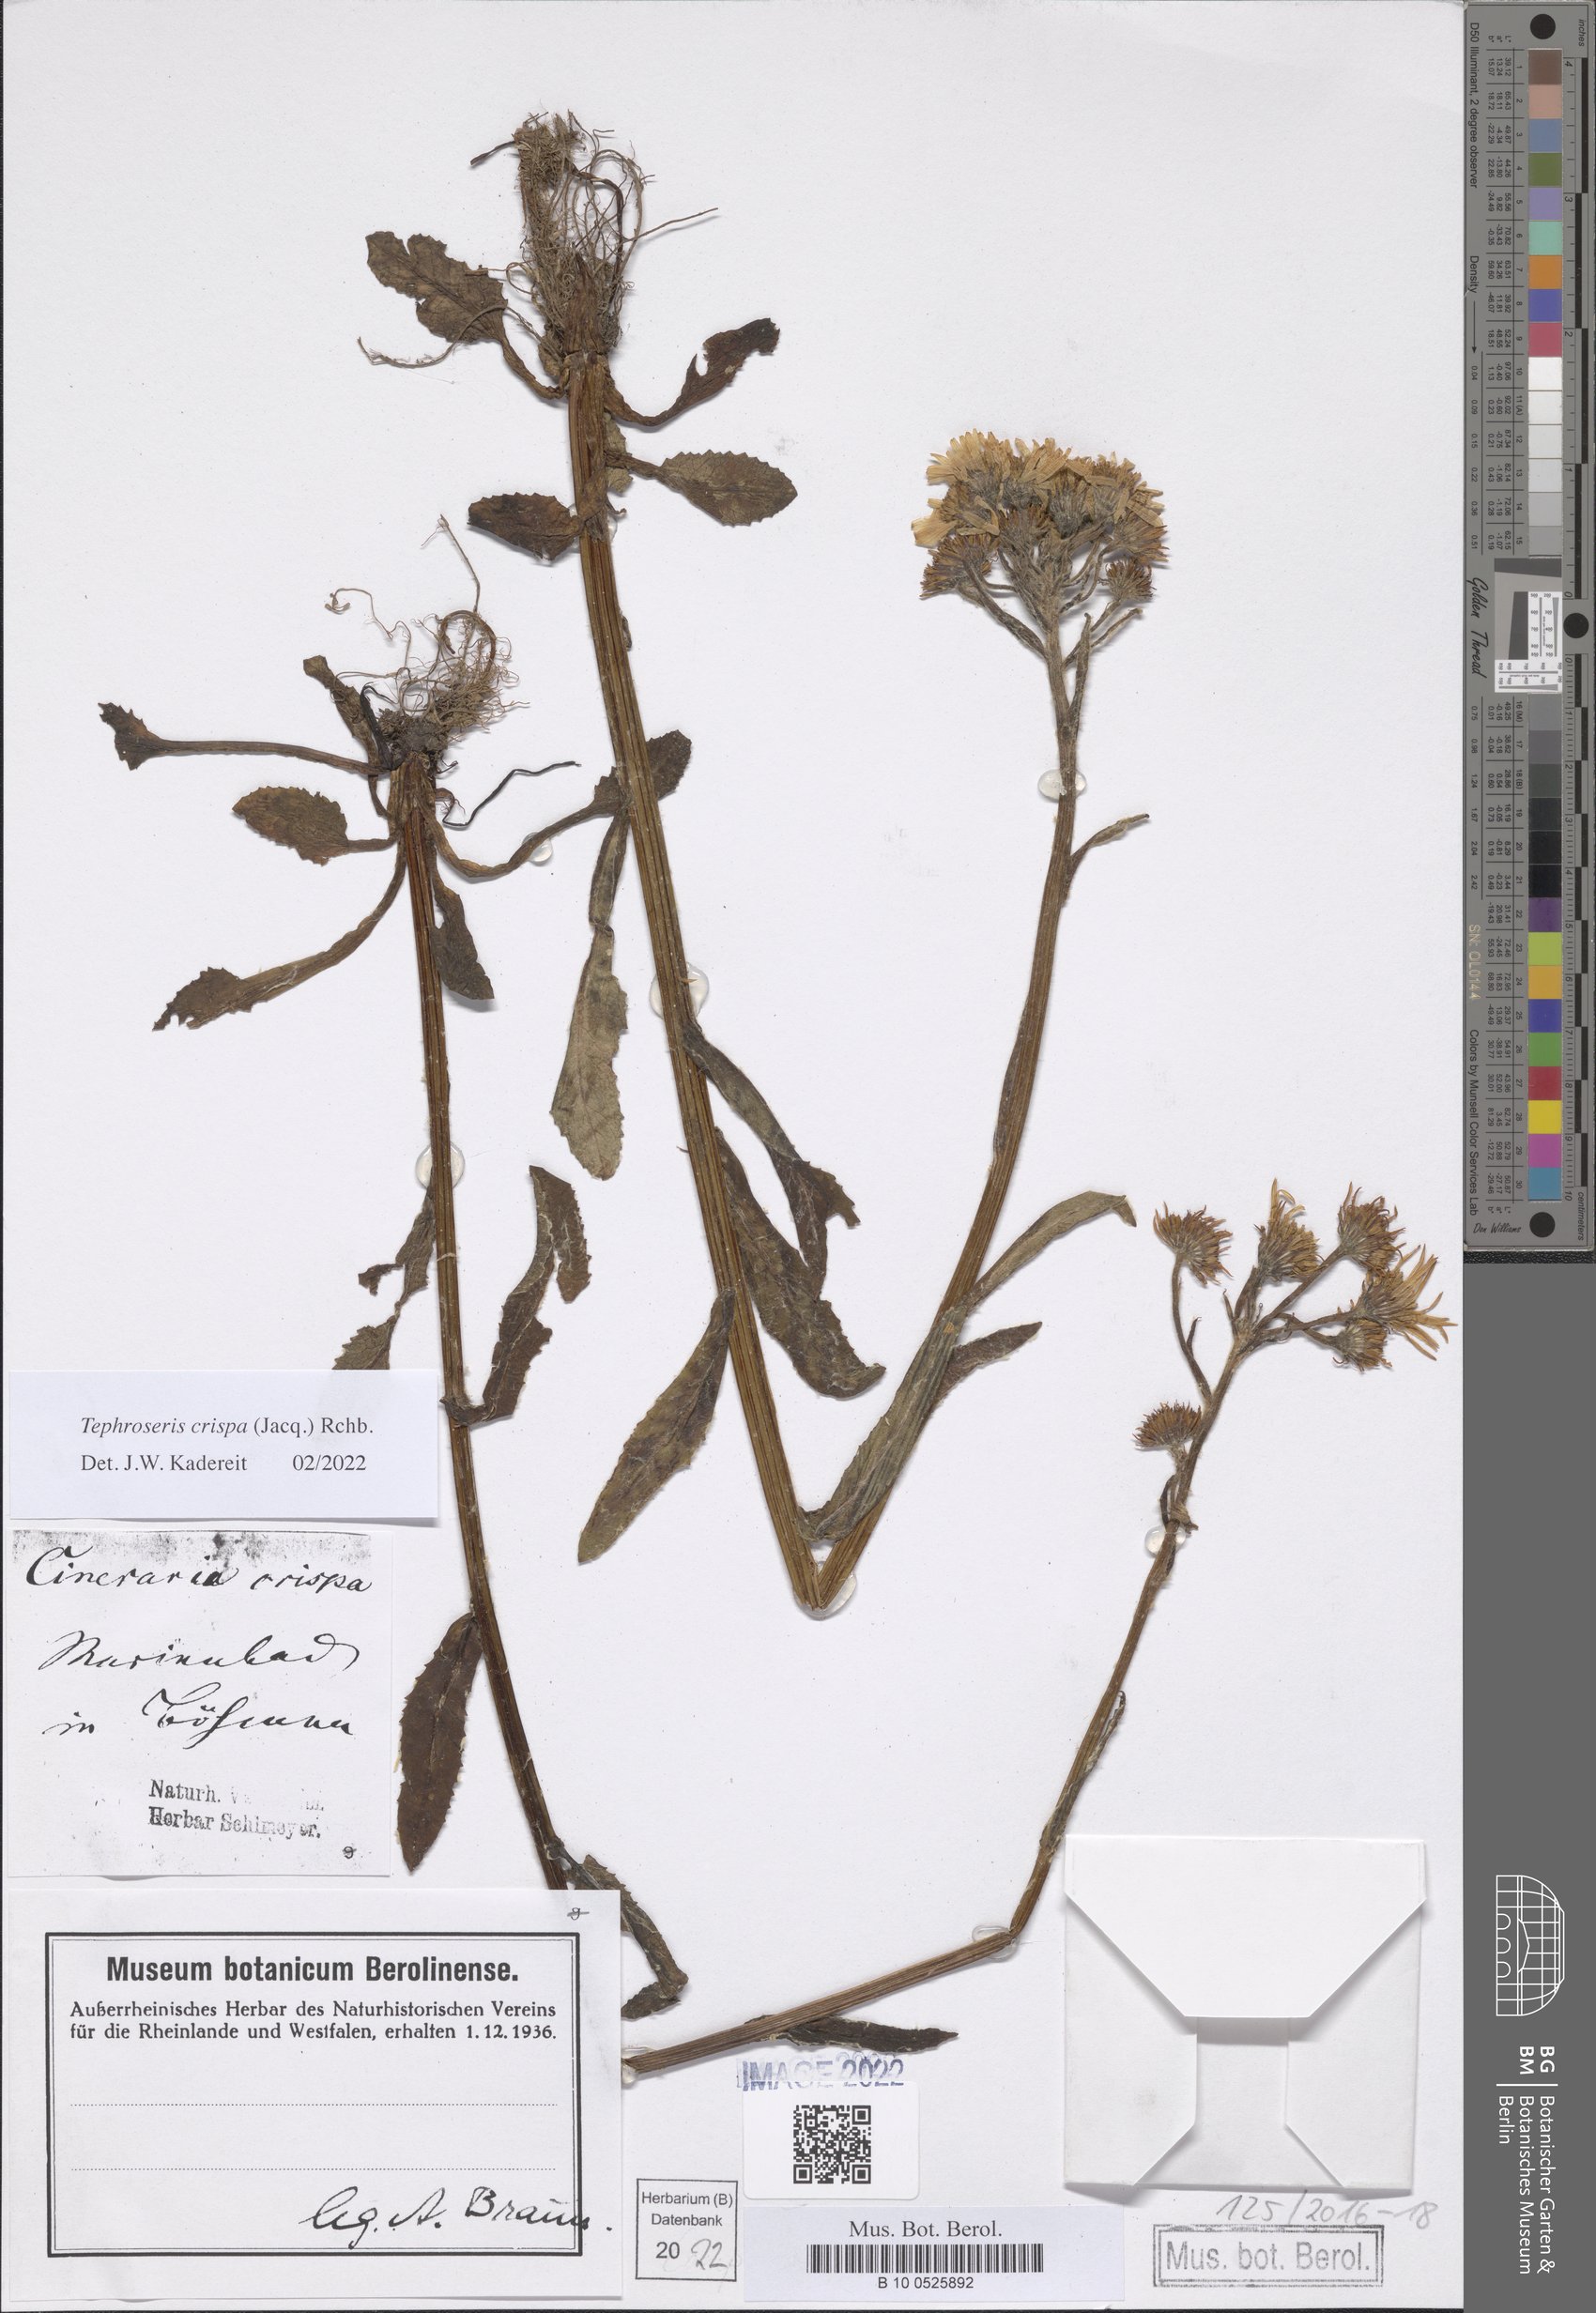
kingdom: Plantae
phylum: Tracheophyta
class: Magnoliopsida
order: Asterales
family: Asteraceae
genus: Tephroseris
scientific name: Tephroseris crispa
